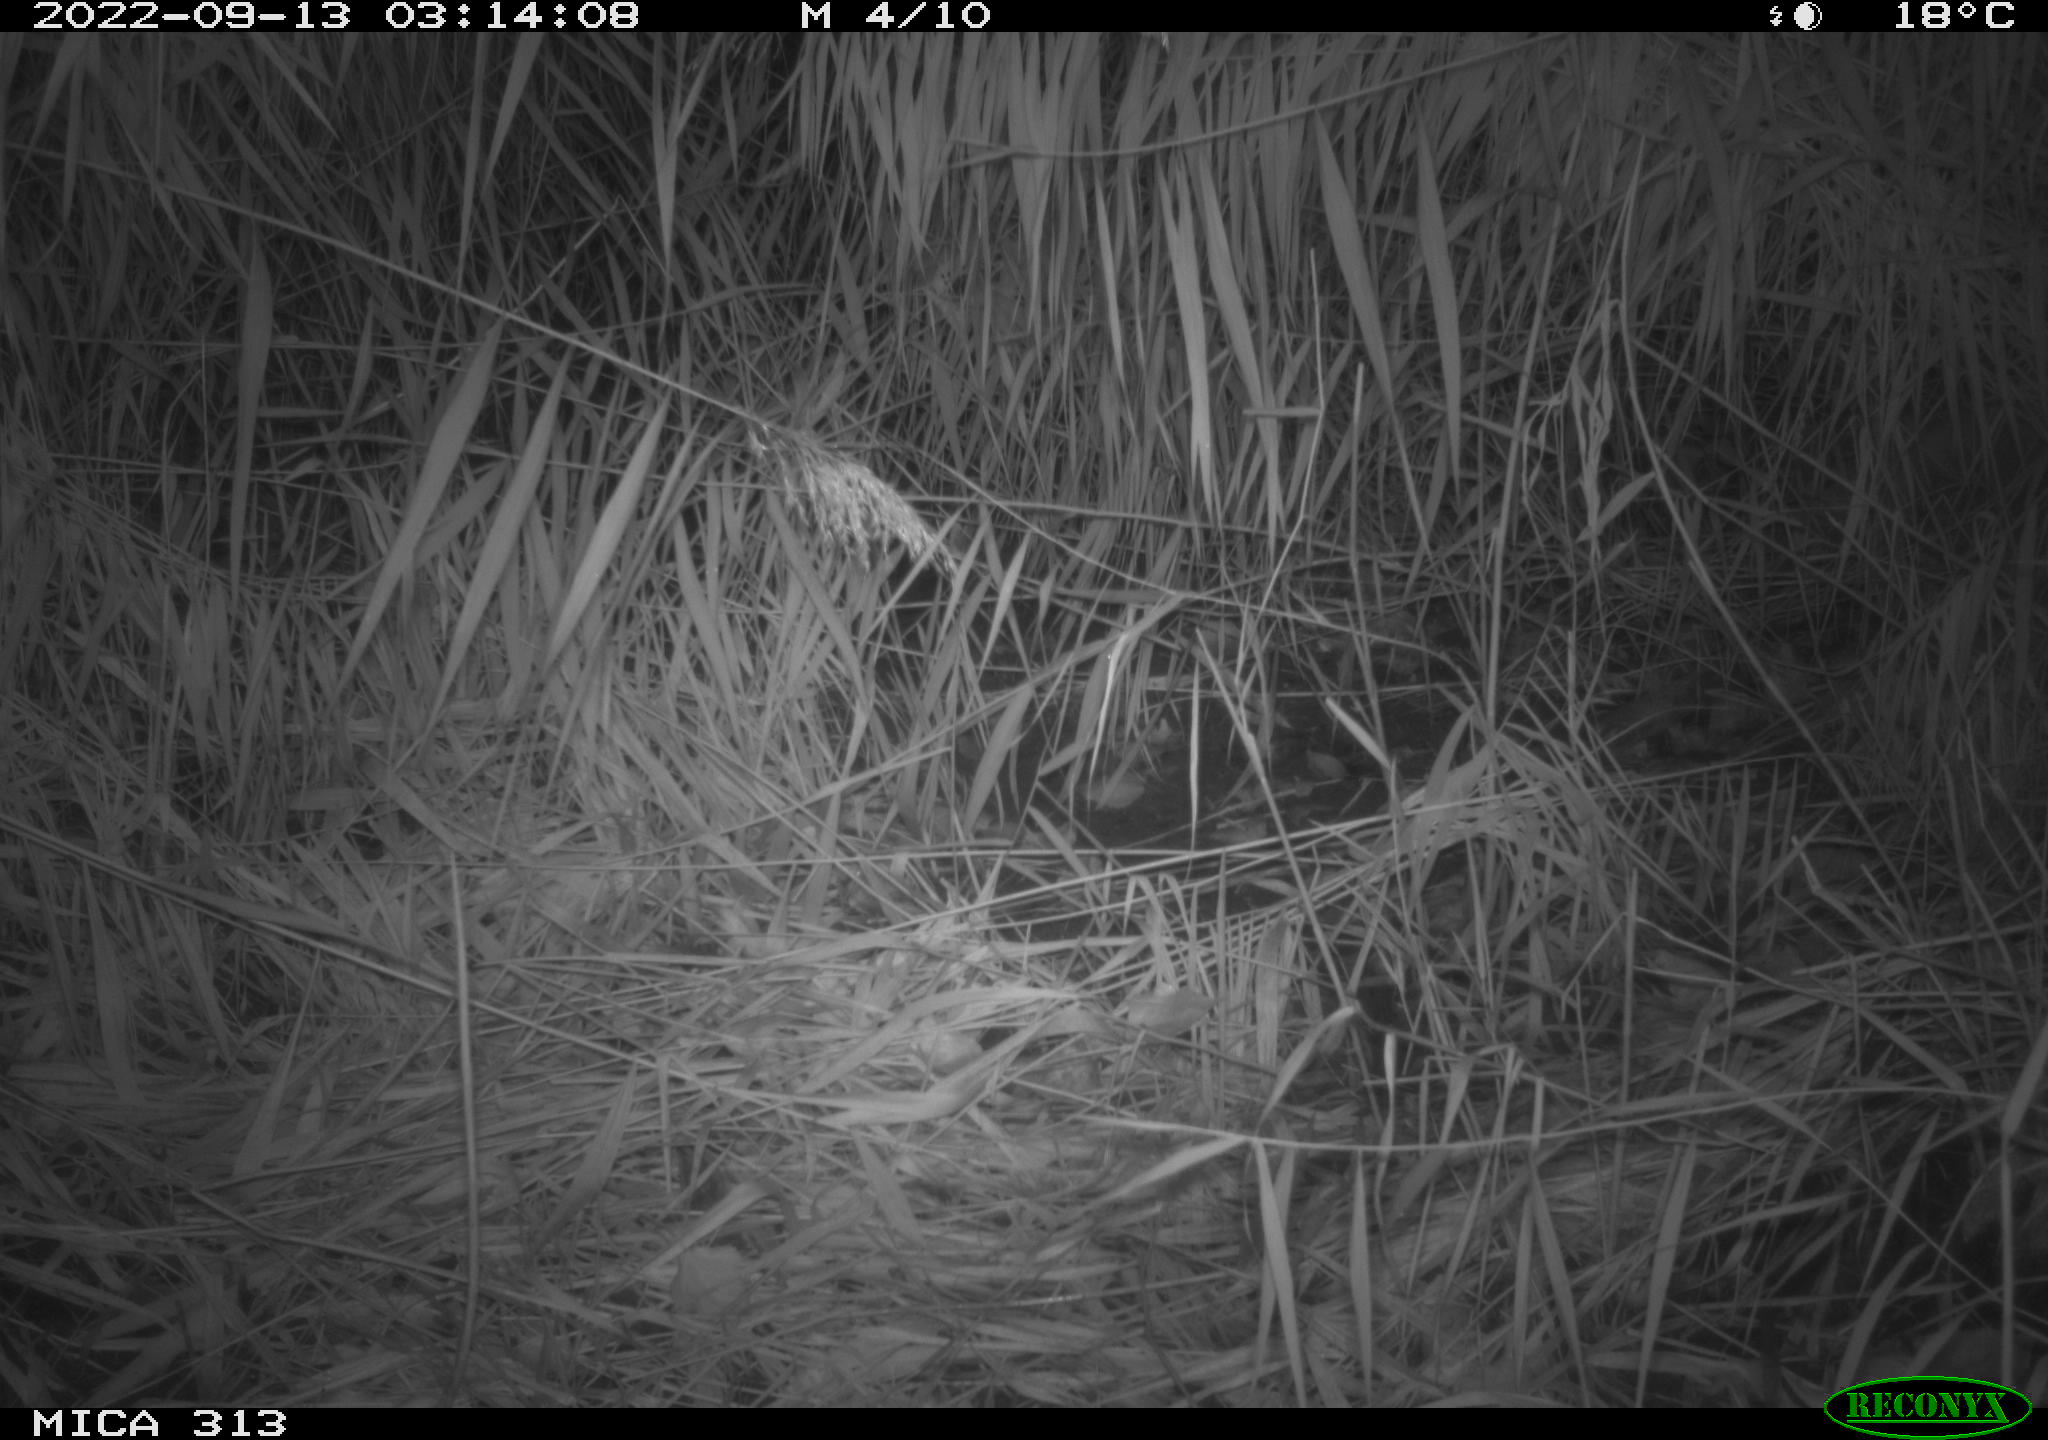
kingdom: Animalia
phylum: Chordata
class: Mammalia
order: Rodentia
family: Muridae
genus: Rattus
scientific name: Rattus norvegicus
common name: Brown rat
